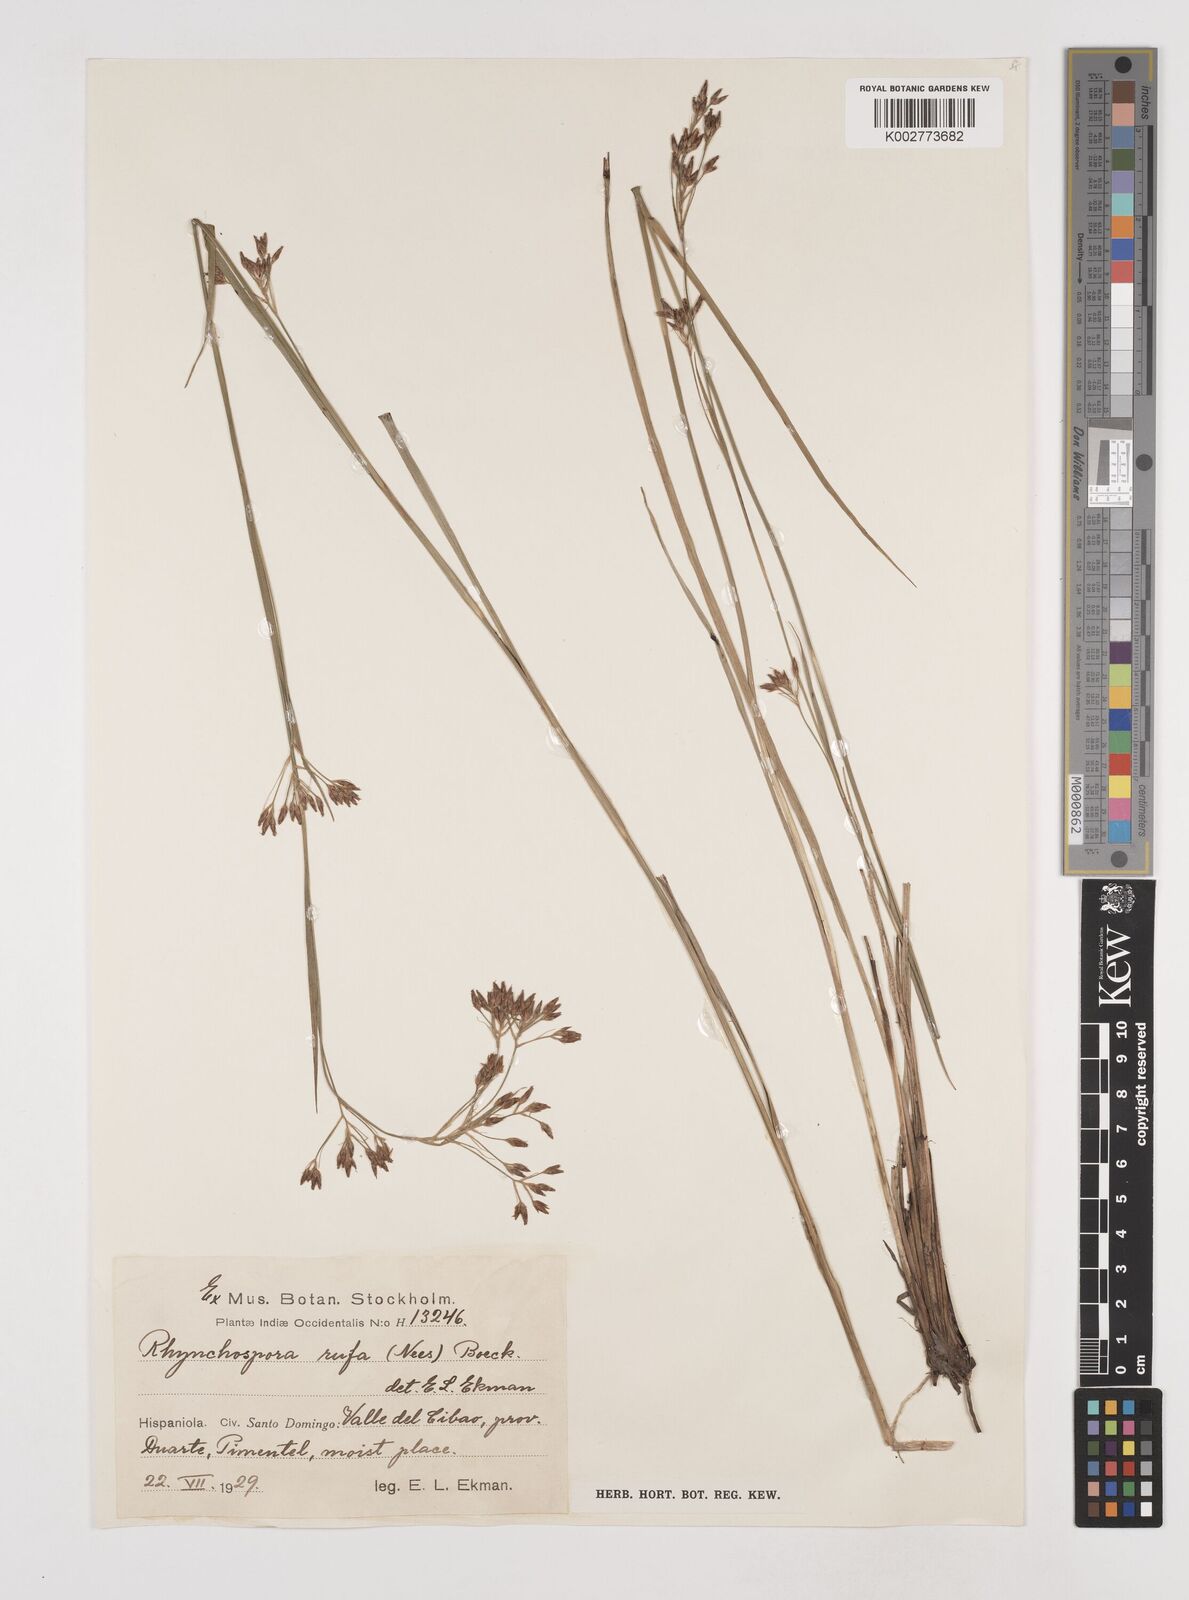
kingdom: Plantae
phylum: Tracheophyta
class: Liliopsida
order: Poales
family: Cyperaceae
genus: Rhynchospora
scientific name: Rhynchospora velutina
